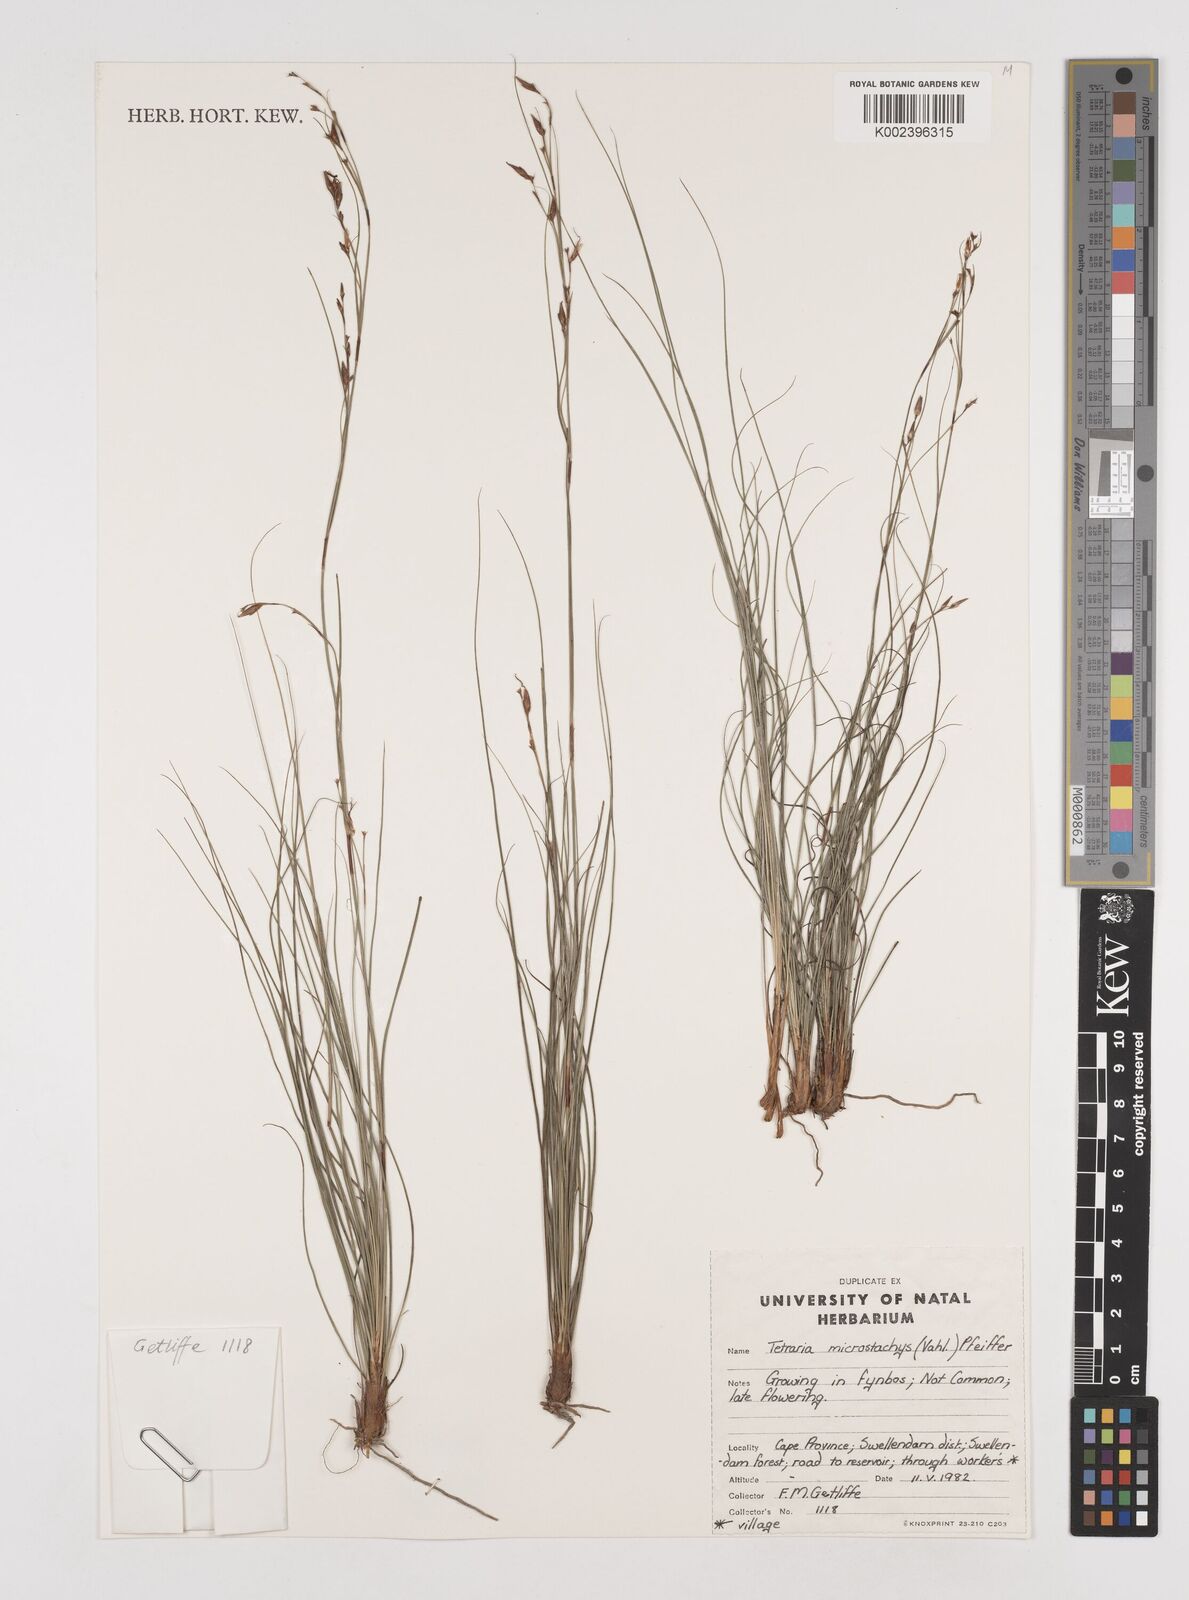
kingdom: Plantae
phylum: Tracheophyta
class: Liliopsida
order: Poales
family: Cyperaceae
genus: Tetraria
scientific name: Tetraria microstachys
